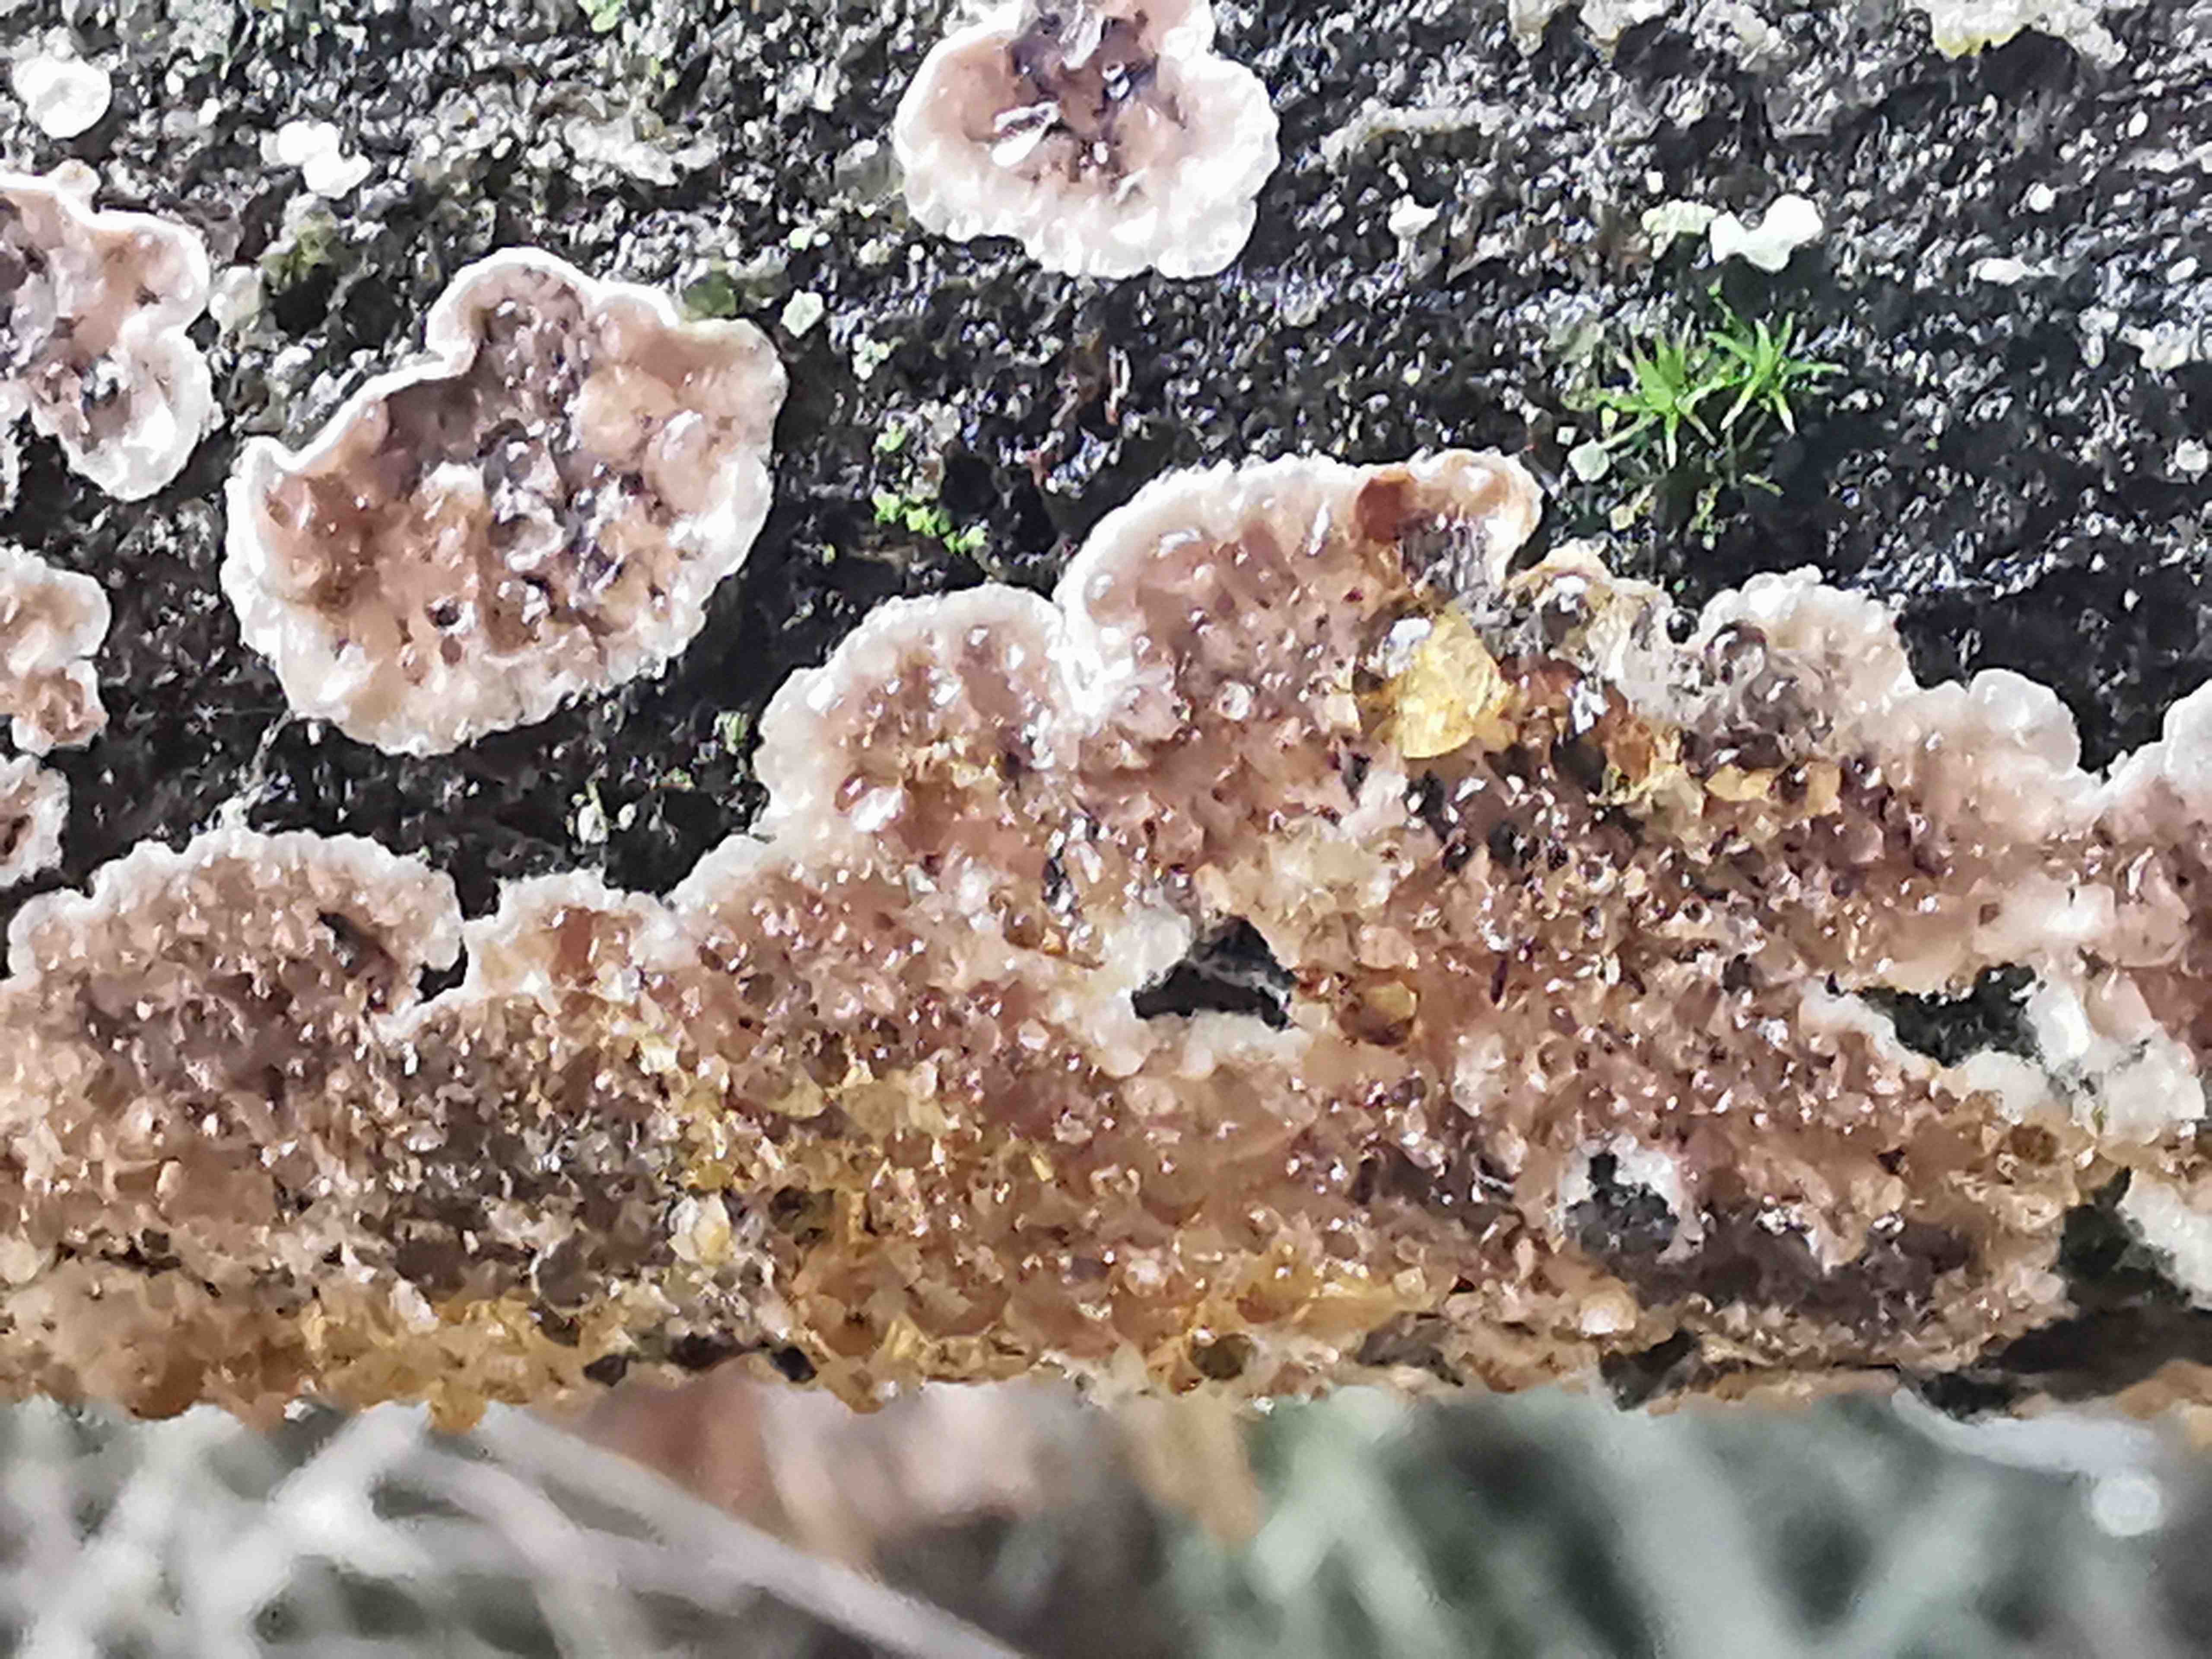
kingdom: Fungi
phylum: Basidiomycota
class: Agaricomycetes
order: Russulales
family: Stereaceae
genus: Stereum
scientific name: Stereum sanguinolentum
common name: blødende lædersvamp
